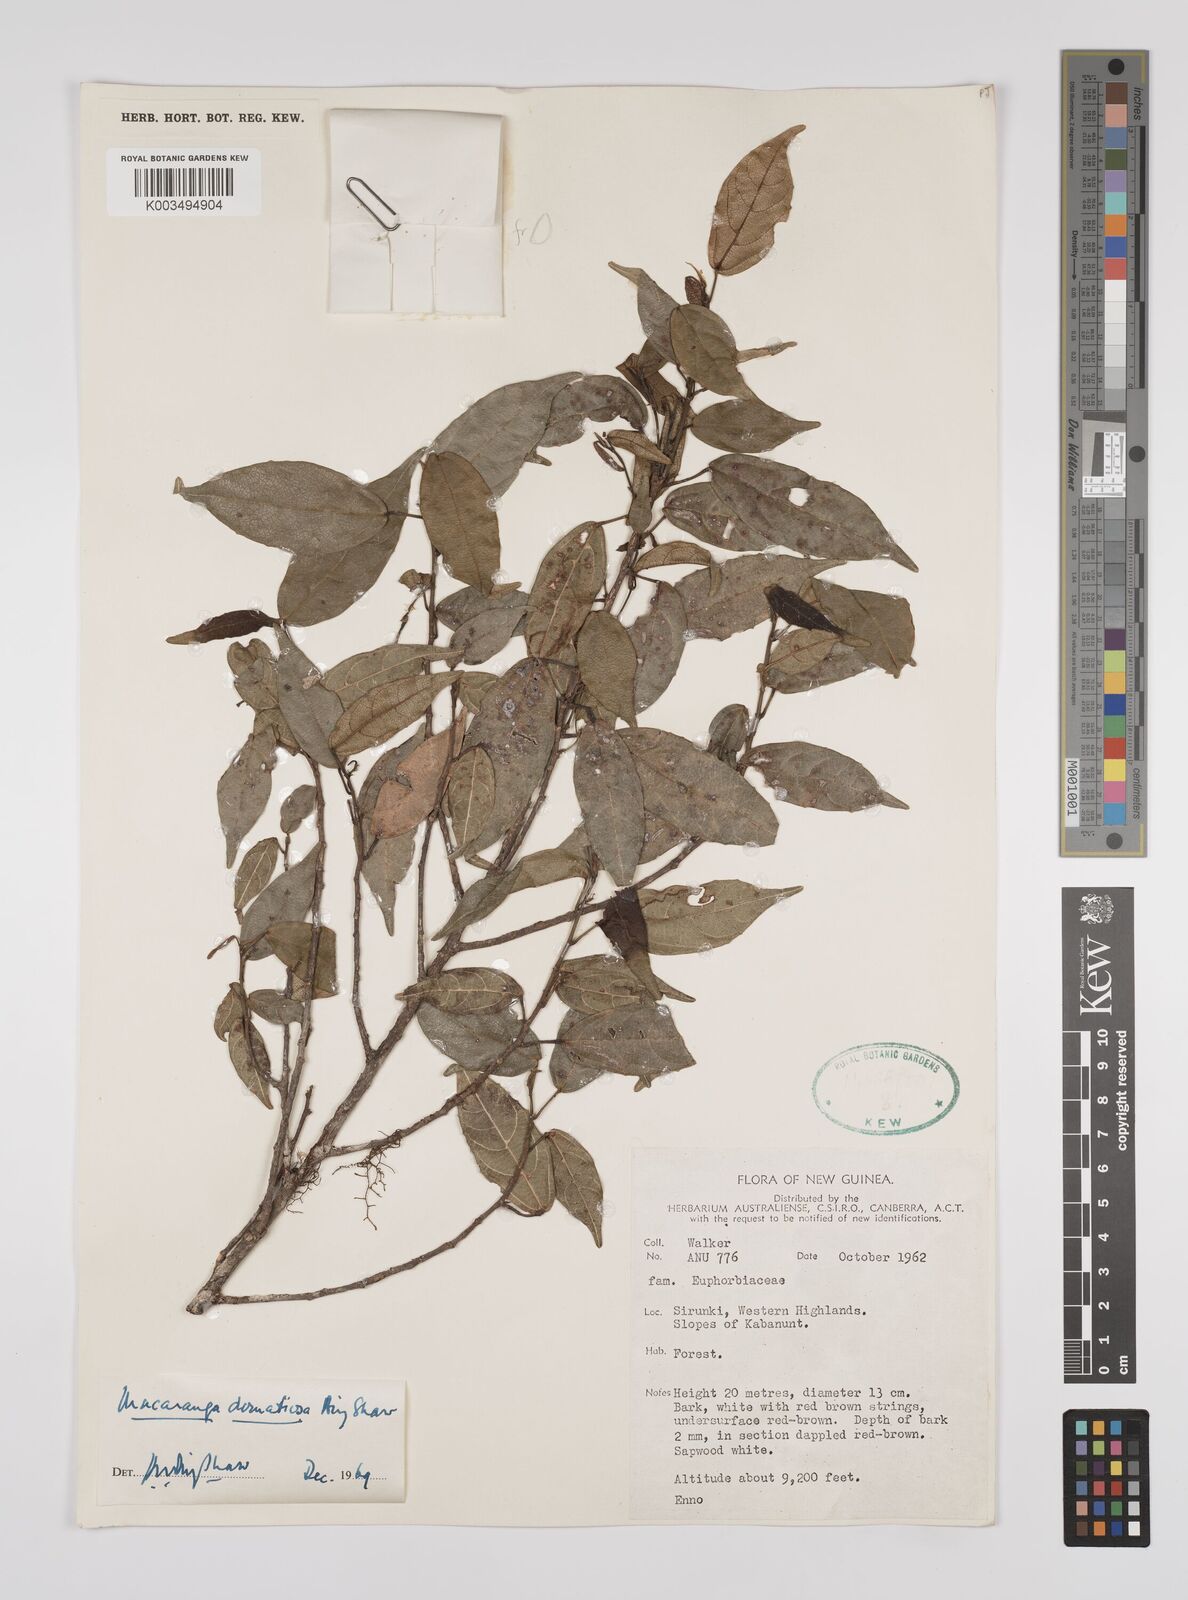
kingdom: Plantae
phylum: Tracheophyta
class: Magnoliopsida
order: Malpighiales
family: Euphorbiaceae
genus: Macaranga
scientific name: Macaranga domatiosa
